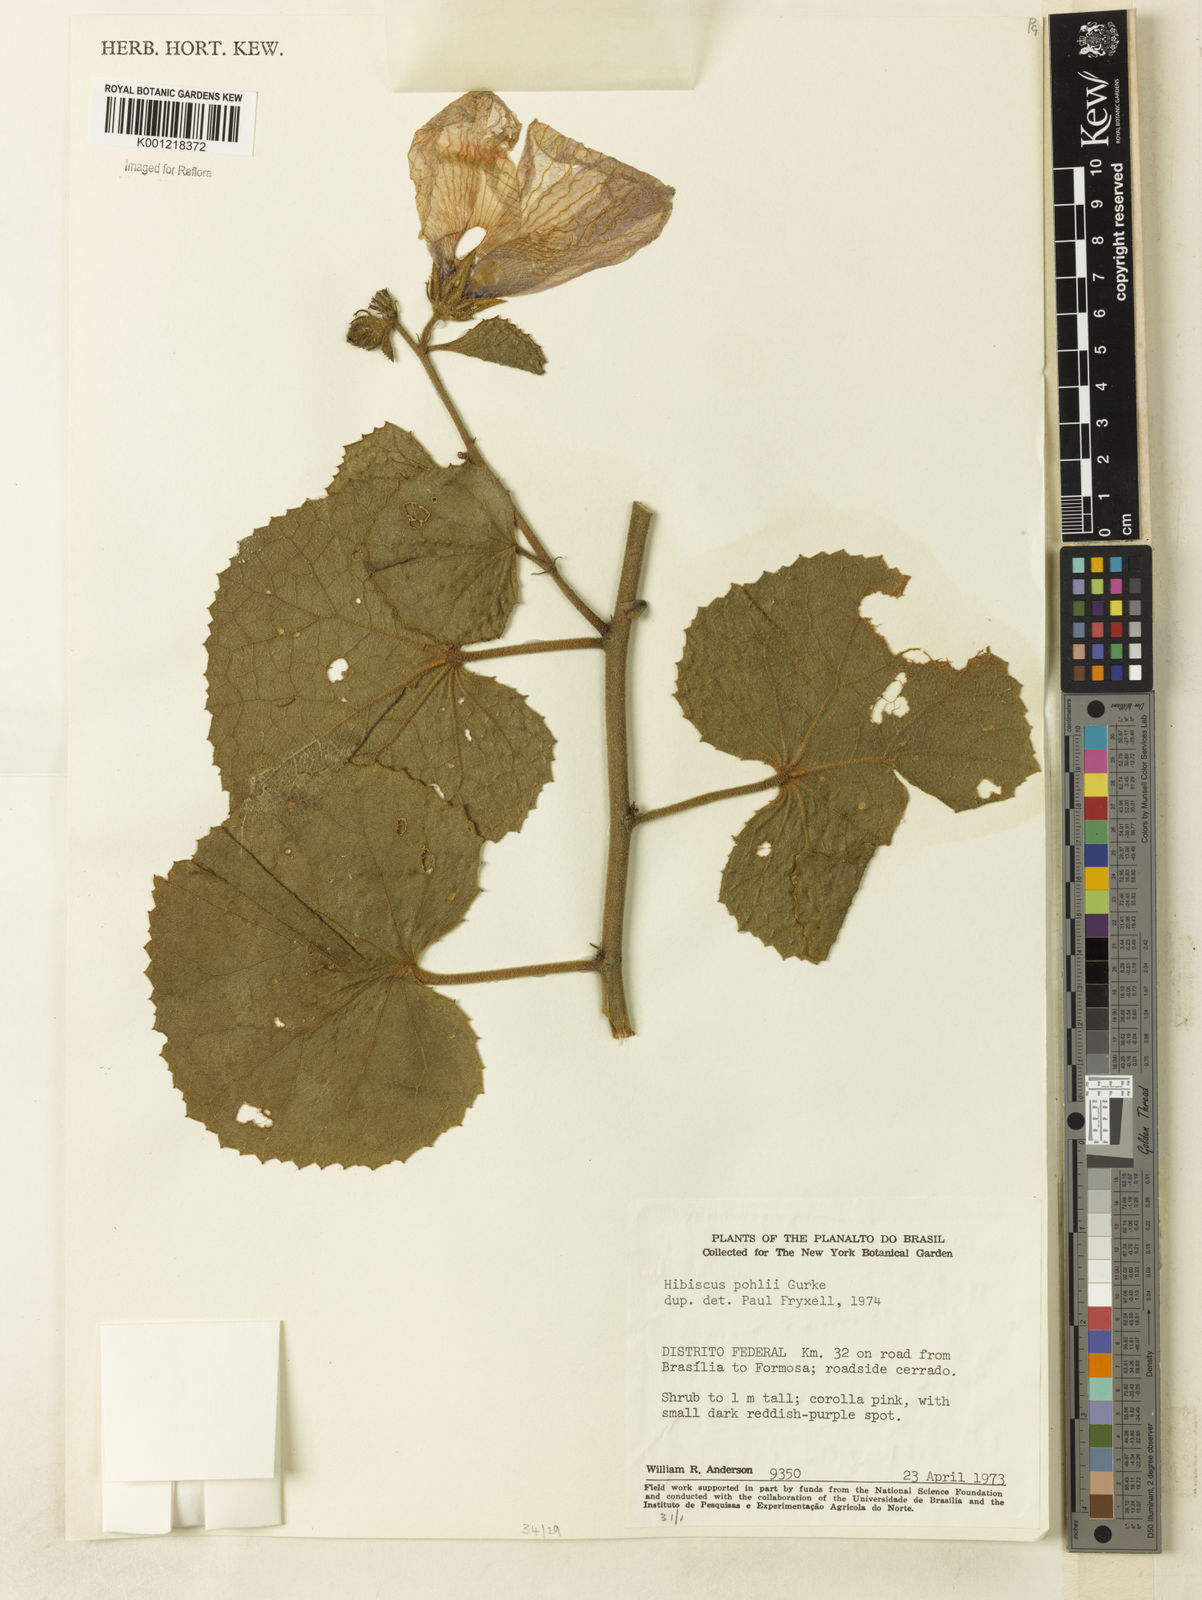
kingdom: Plantae
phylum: Tracheophyta
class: Magnoliopsida
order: Malvales
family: Malvaceae
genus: Hibiscus
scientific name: Hibiscus
